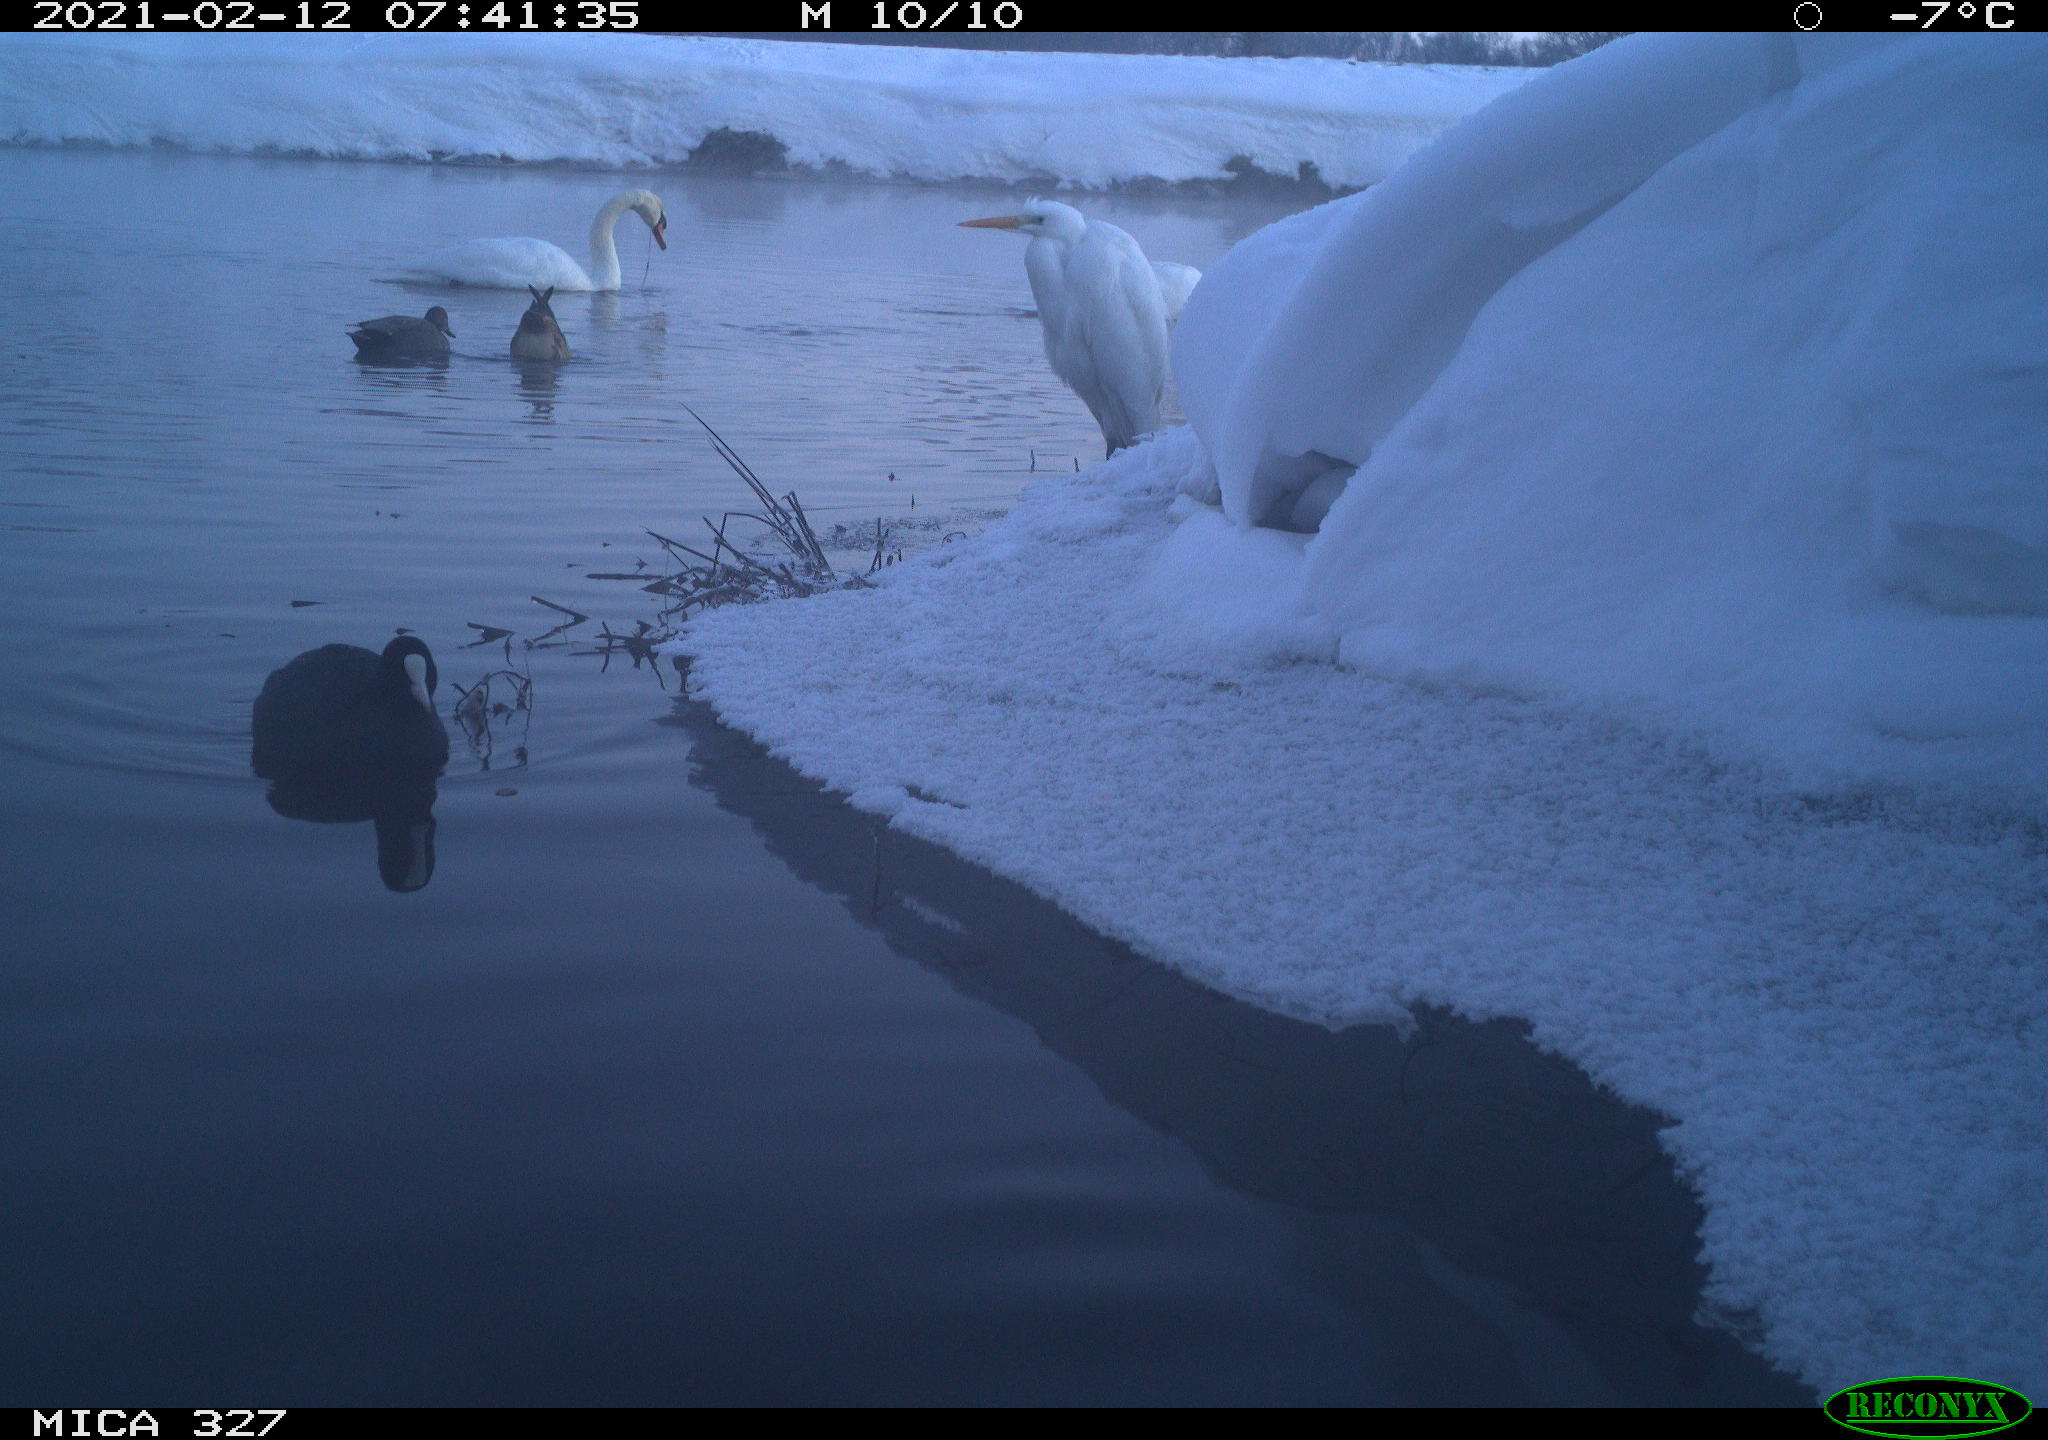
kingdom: Animalia
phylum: Chordata
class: Aves
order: Gruiformes
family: Rallidae
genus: Fulica
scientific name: Fulica atra
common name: Eurasian coot
